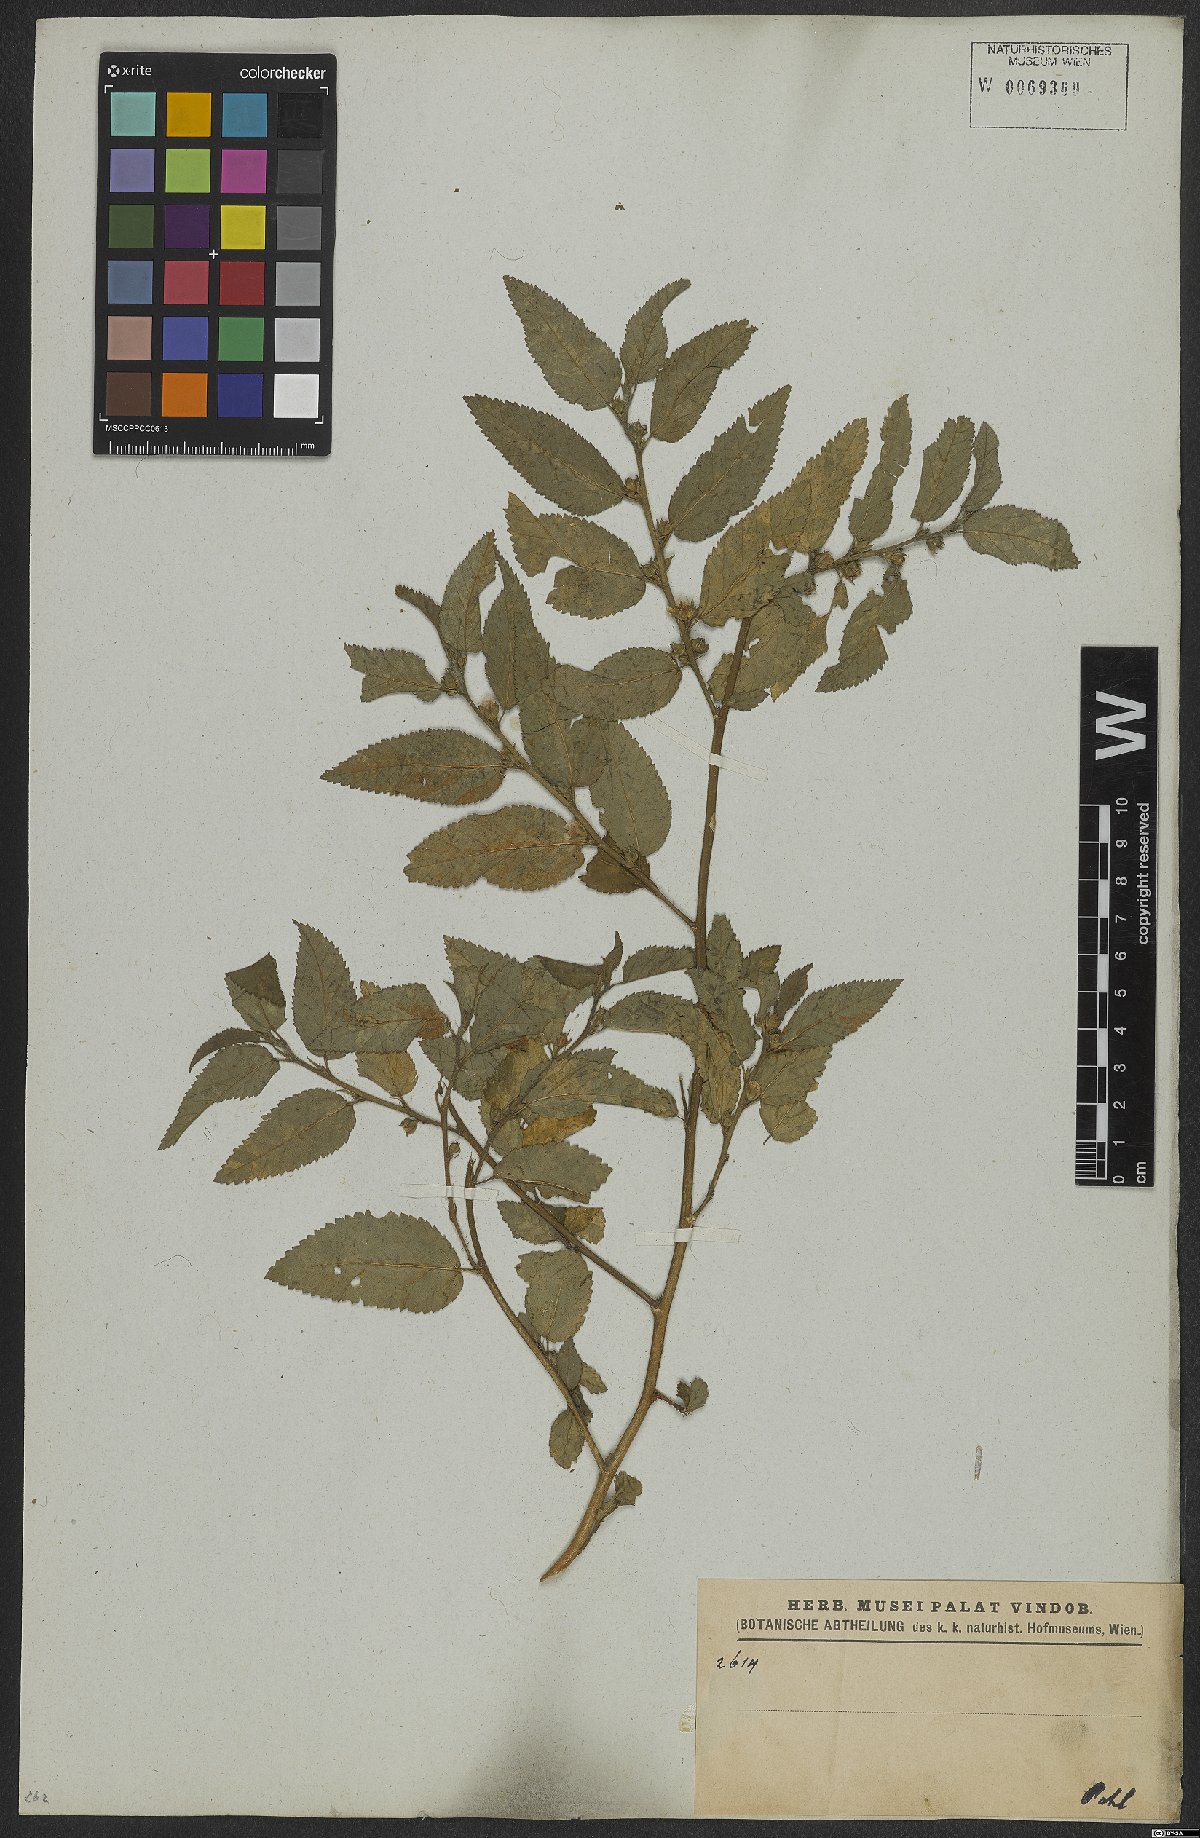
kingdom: Plantae
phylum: Tracheophyta
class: Magnoliopsida
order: Malvales
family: Malvaceae
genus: Sida
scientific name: Sida
